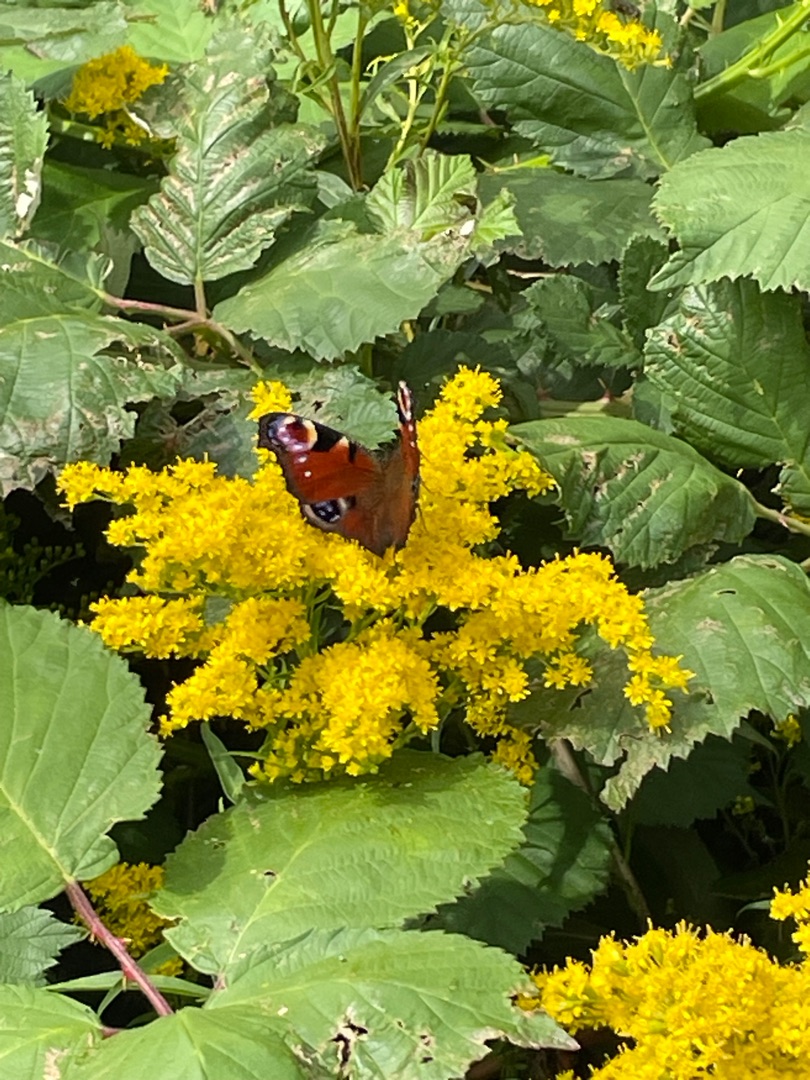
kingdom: Animalia
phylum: Arthropoda
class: Insecta
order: Lepidoptera
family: Nymphalidae
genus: Aglais
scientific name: Aglais io
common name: Dagpåfugleøje
